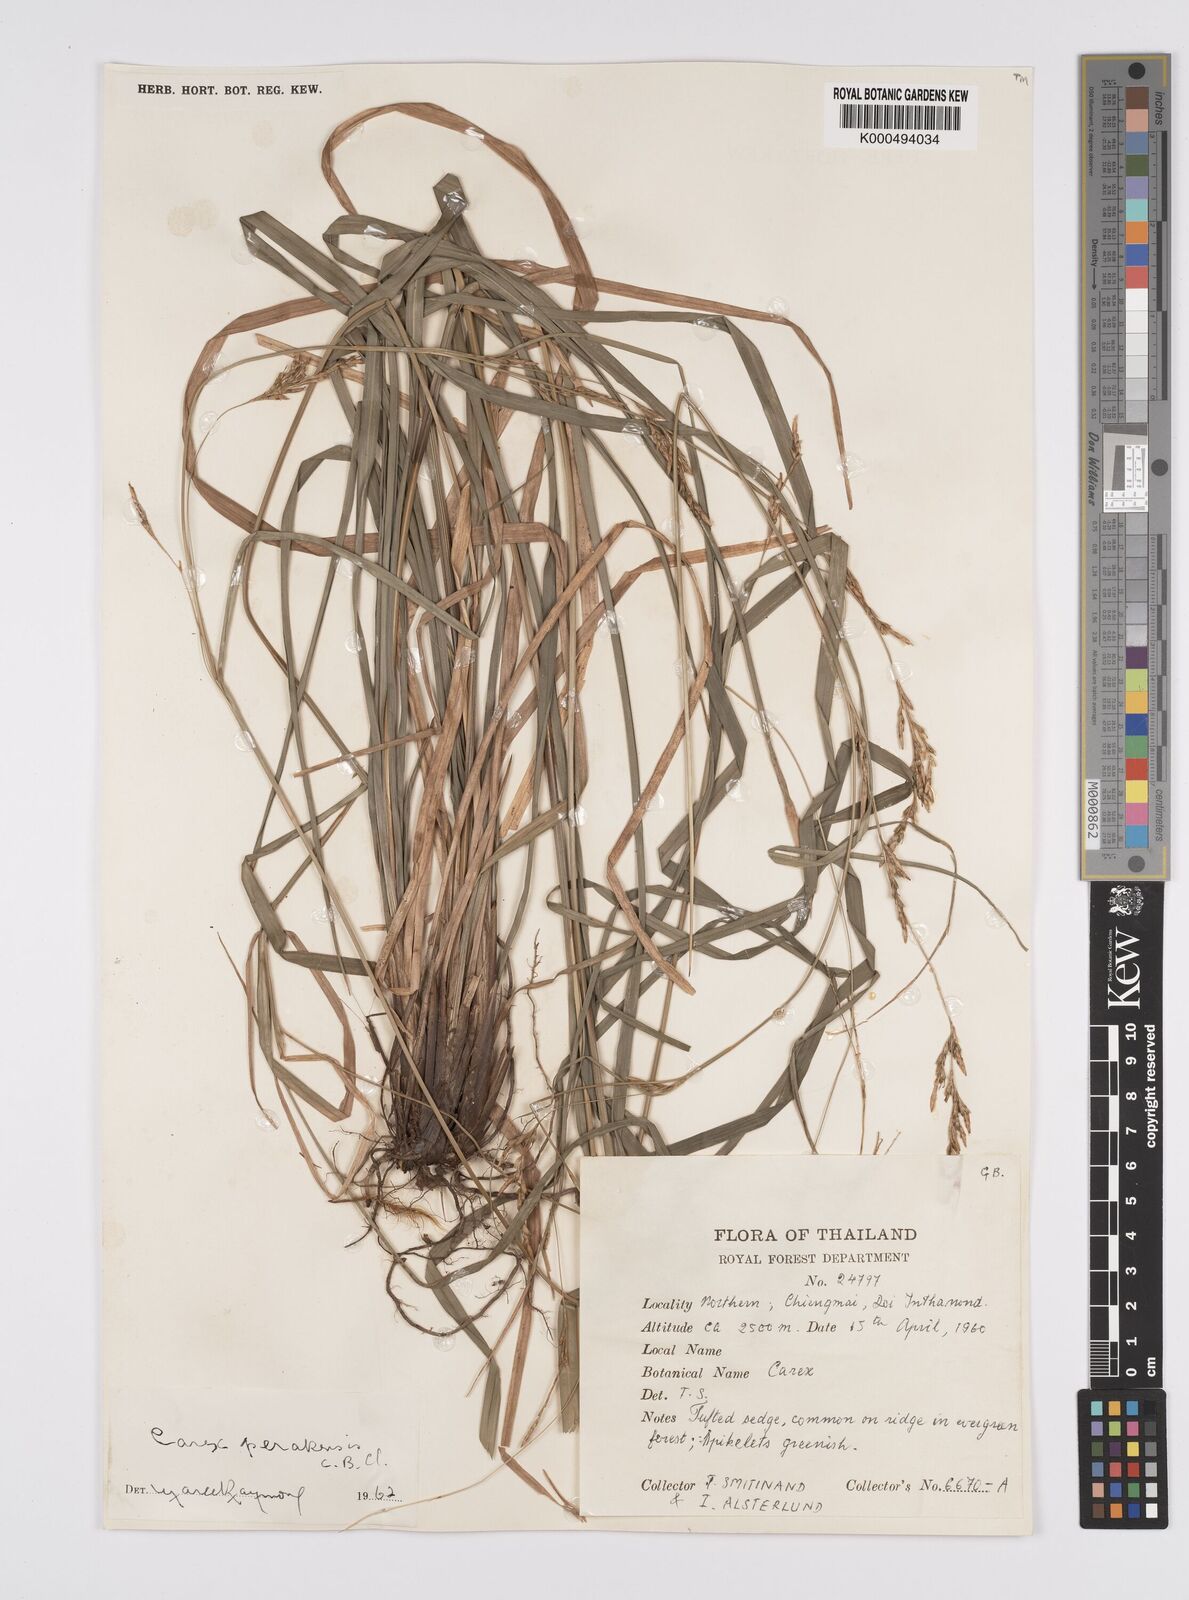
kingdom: Plantae
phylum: Tracheophyta
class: Liliopsida
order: Poales
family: Cyperaceae
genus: Carex
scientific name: Carex perakensis
